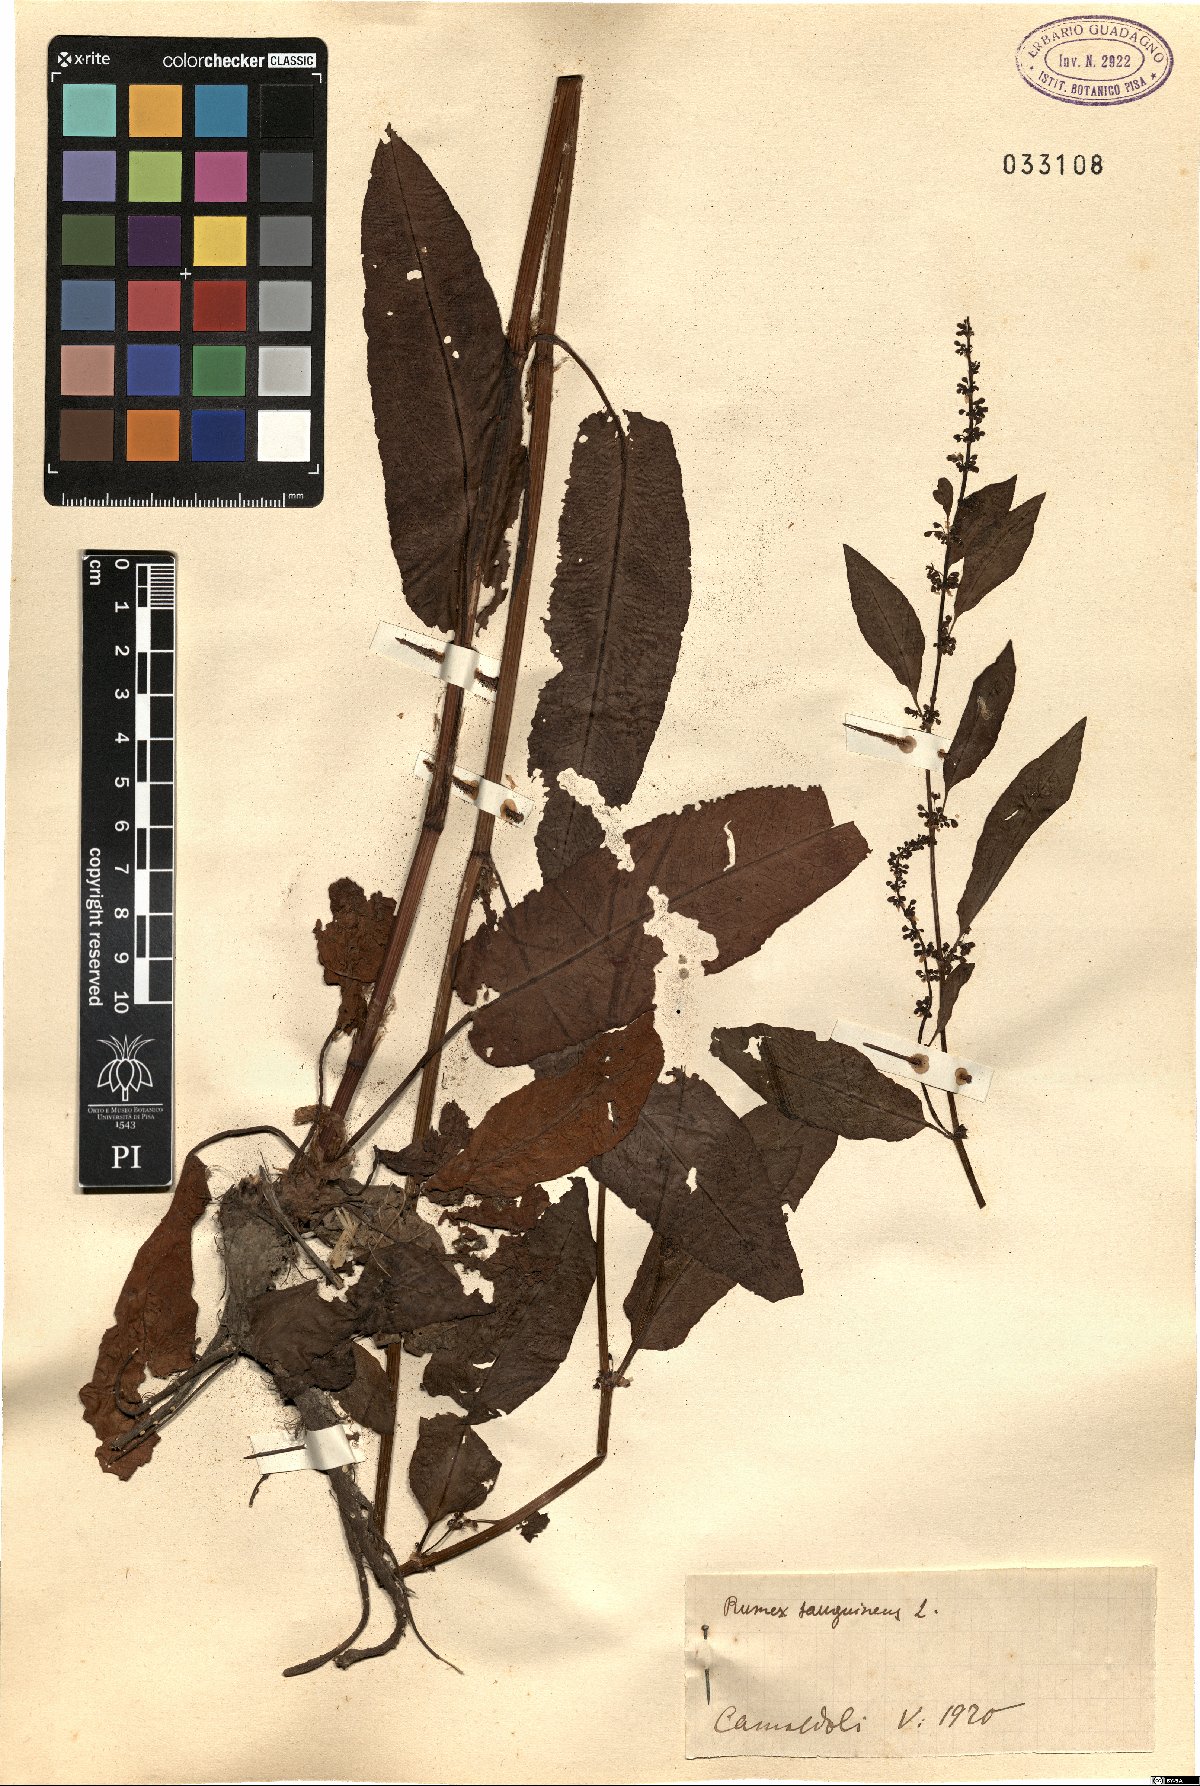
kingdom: Plantae
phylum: Tracheophyta
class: Magnoliopsida
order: Caryophyllales
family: Polygonaceae
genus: Rumex
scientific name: Rumex sanguineus
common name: Wood dock
